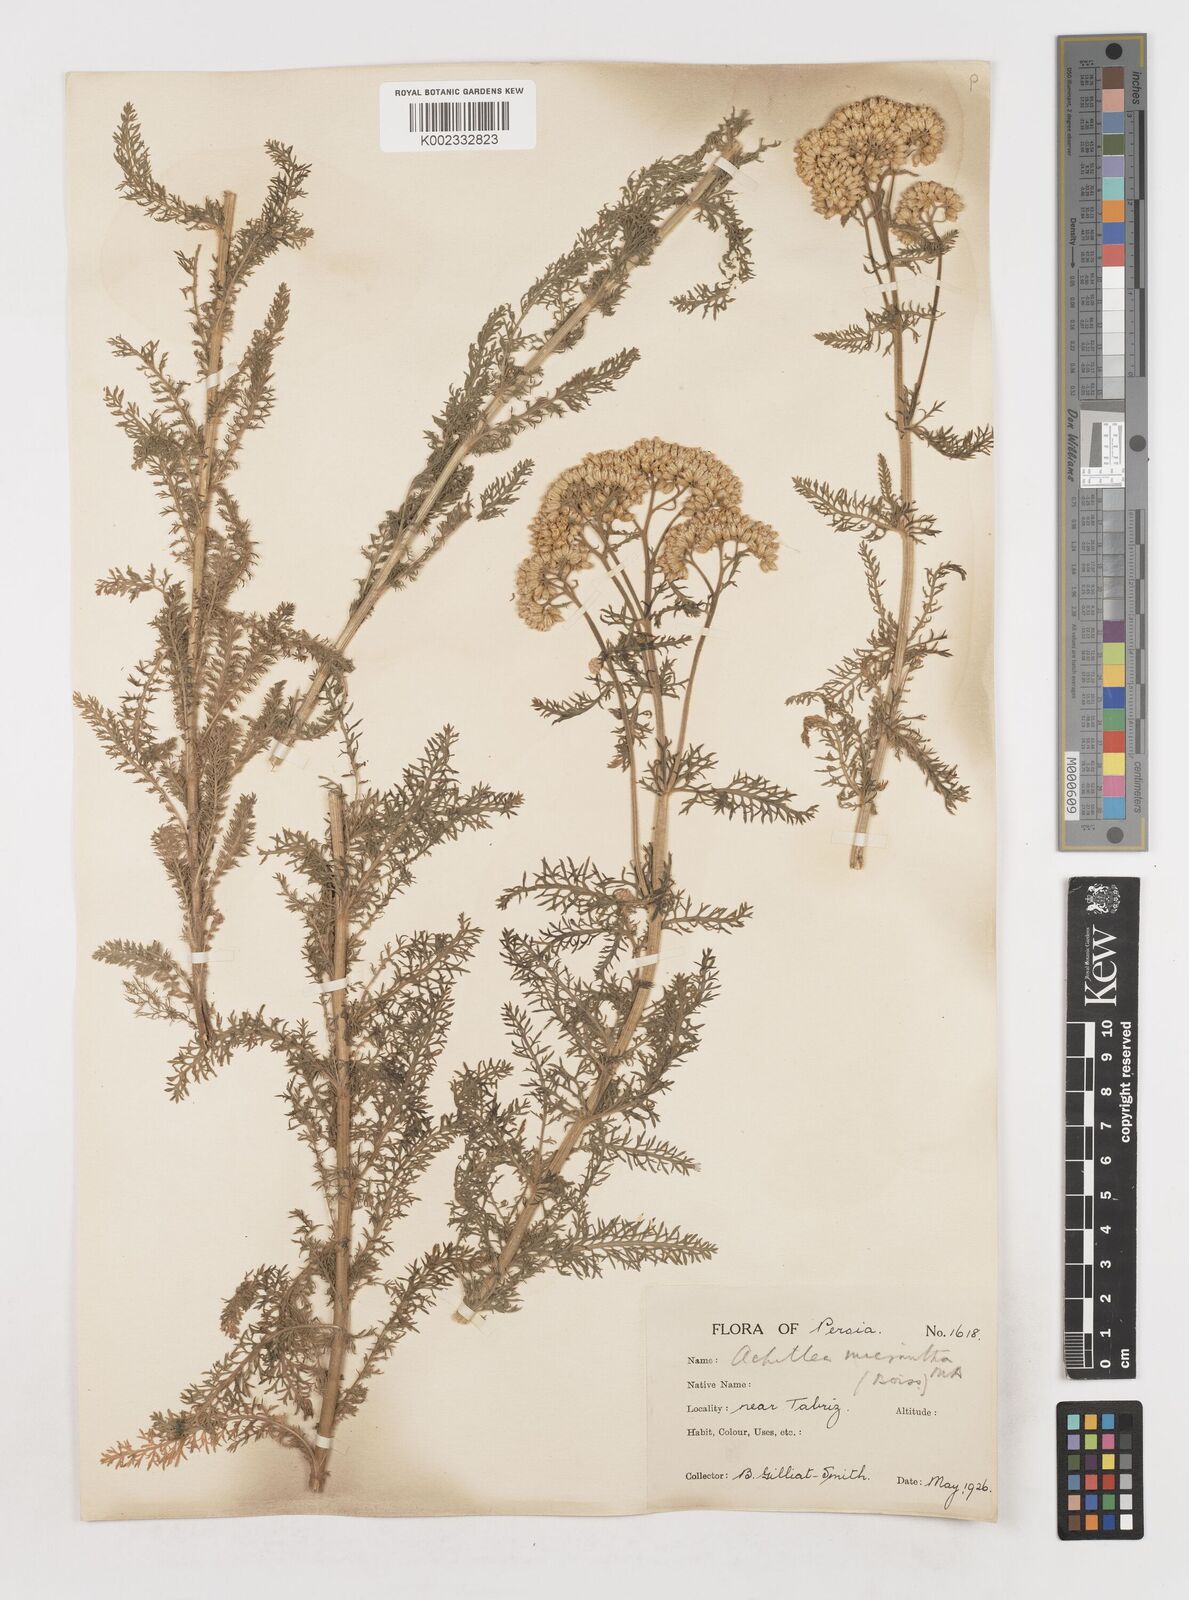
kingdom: Plantae
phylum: Tracheophyta
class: Magnoliopsida
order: Asterales
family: Asteraceae
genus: Achillea
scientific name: Achillea arabica
